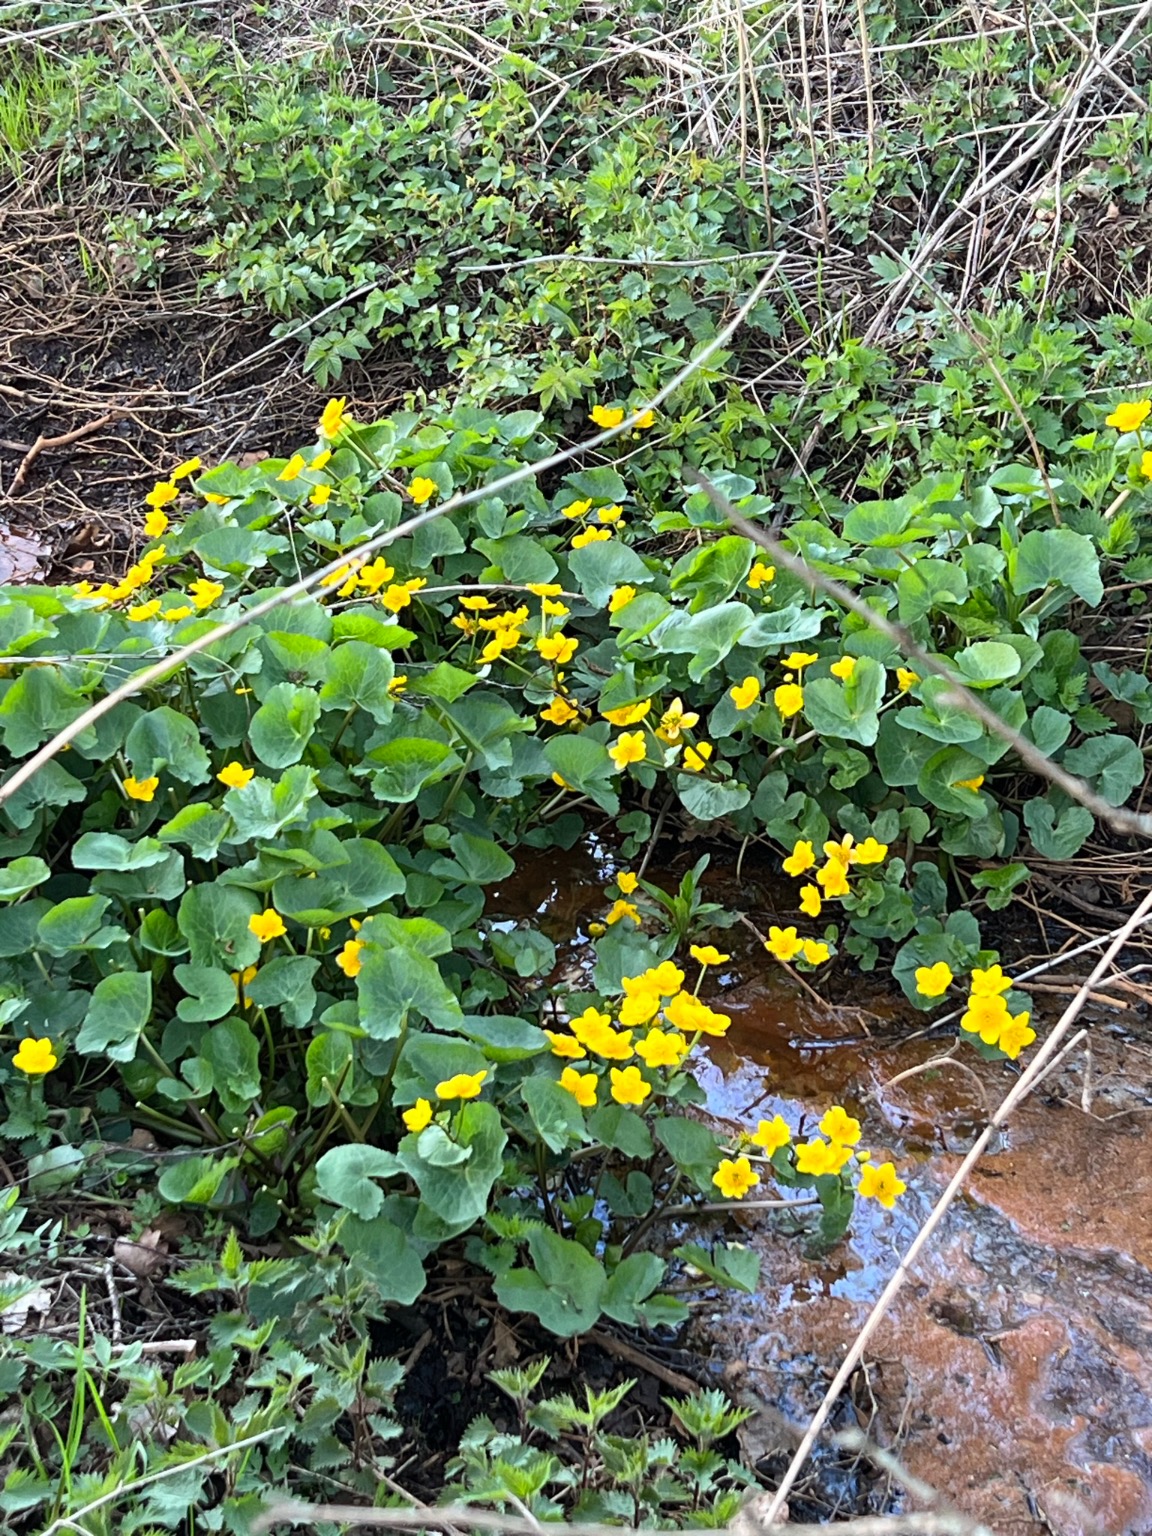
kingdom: Plantae
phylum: Tracheophyta
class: Magnoliopsida
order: Ranunculales
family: Ranunculaceae
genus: Caltha
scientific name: Caltha palustris
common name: Eng-kabbeleje
